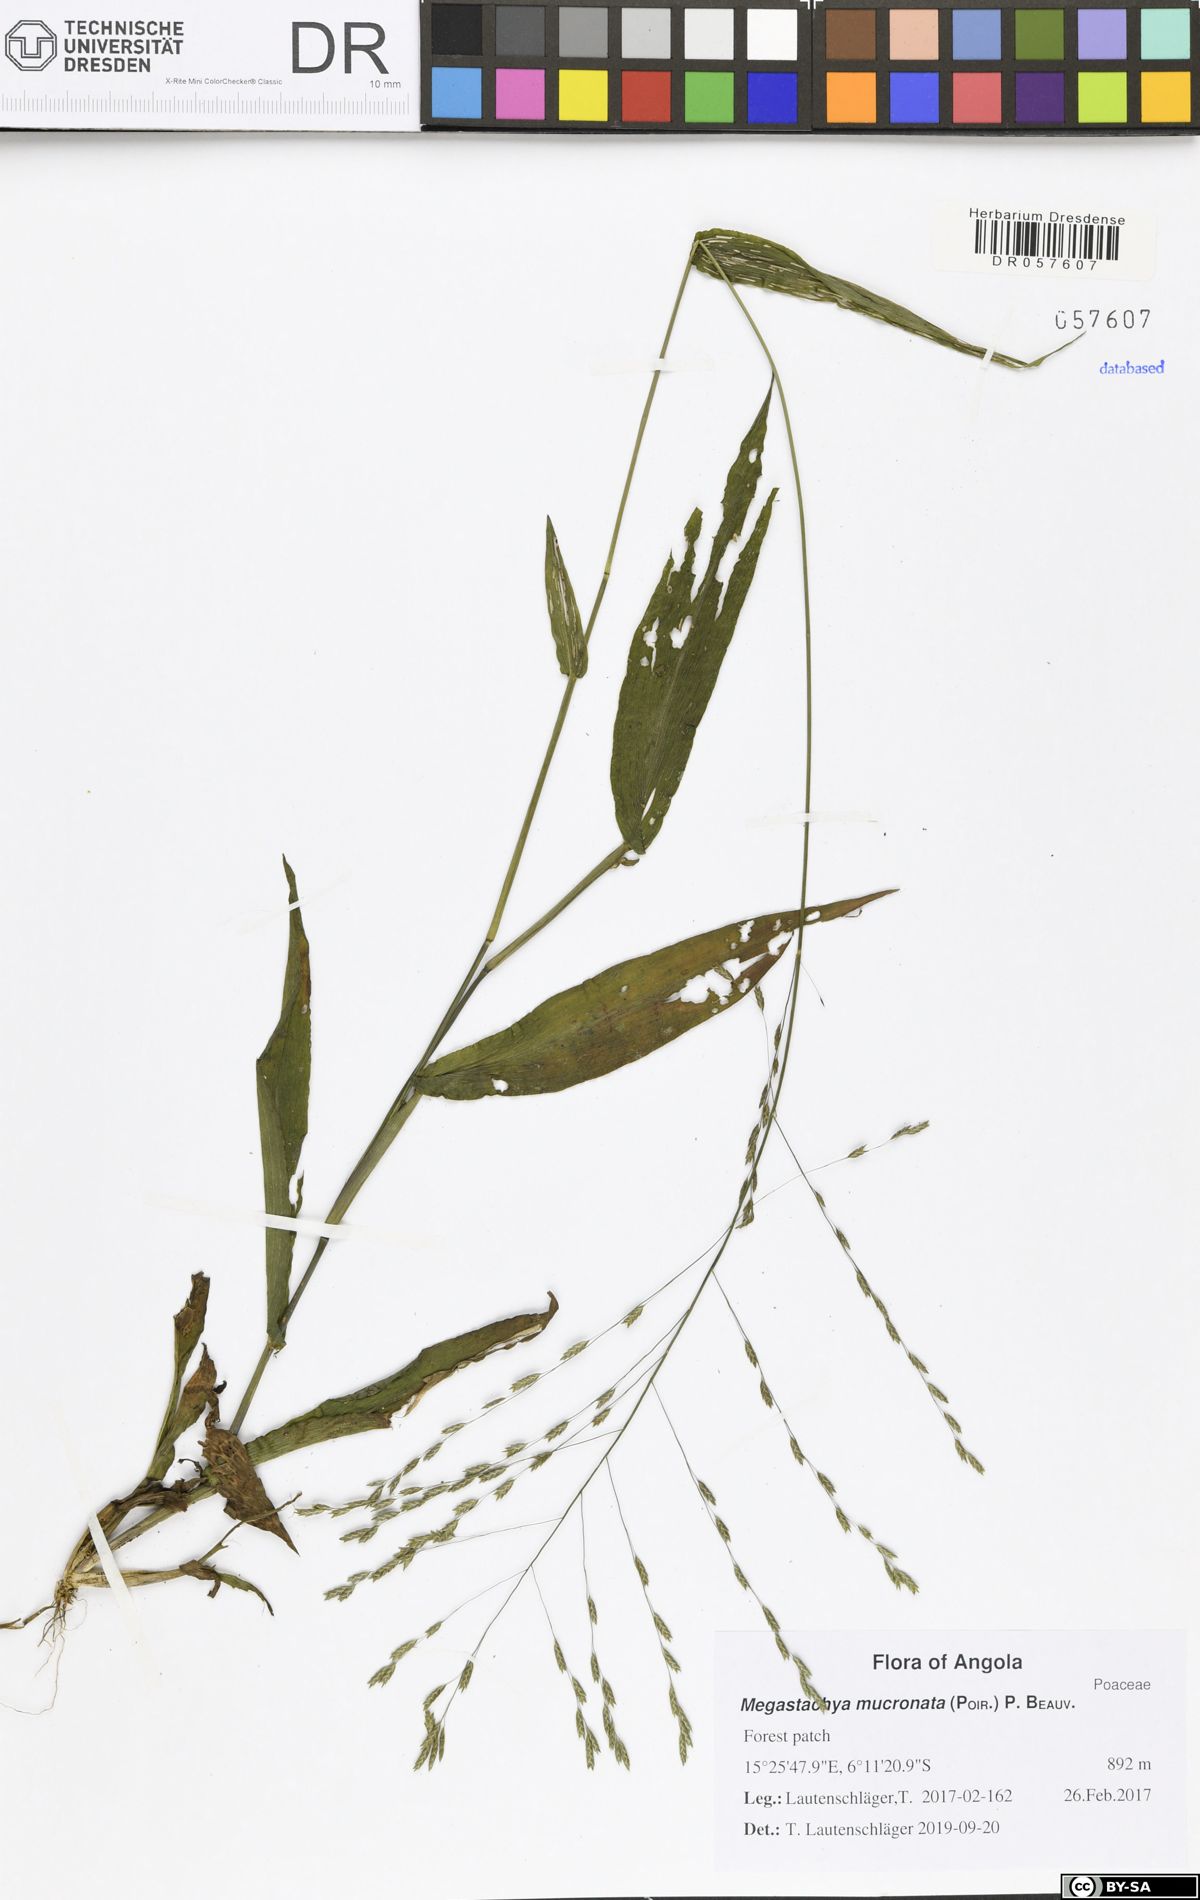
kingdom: Plantae
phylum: Tracheophyta
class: Liliopsida
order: Poales
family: Poaceae
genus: Megastachya
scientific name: Megastachya mucronata
